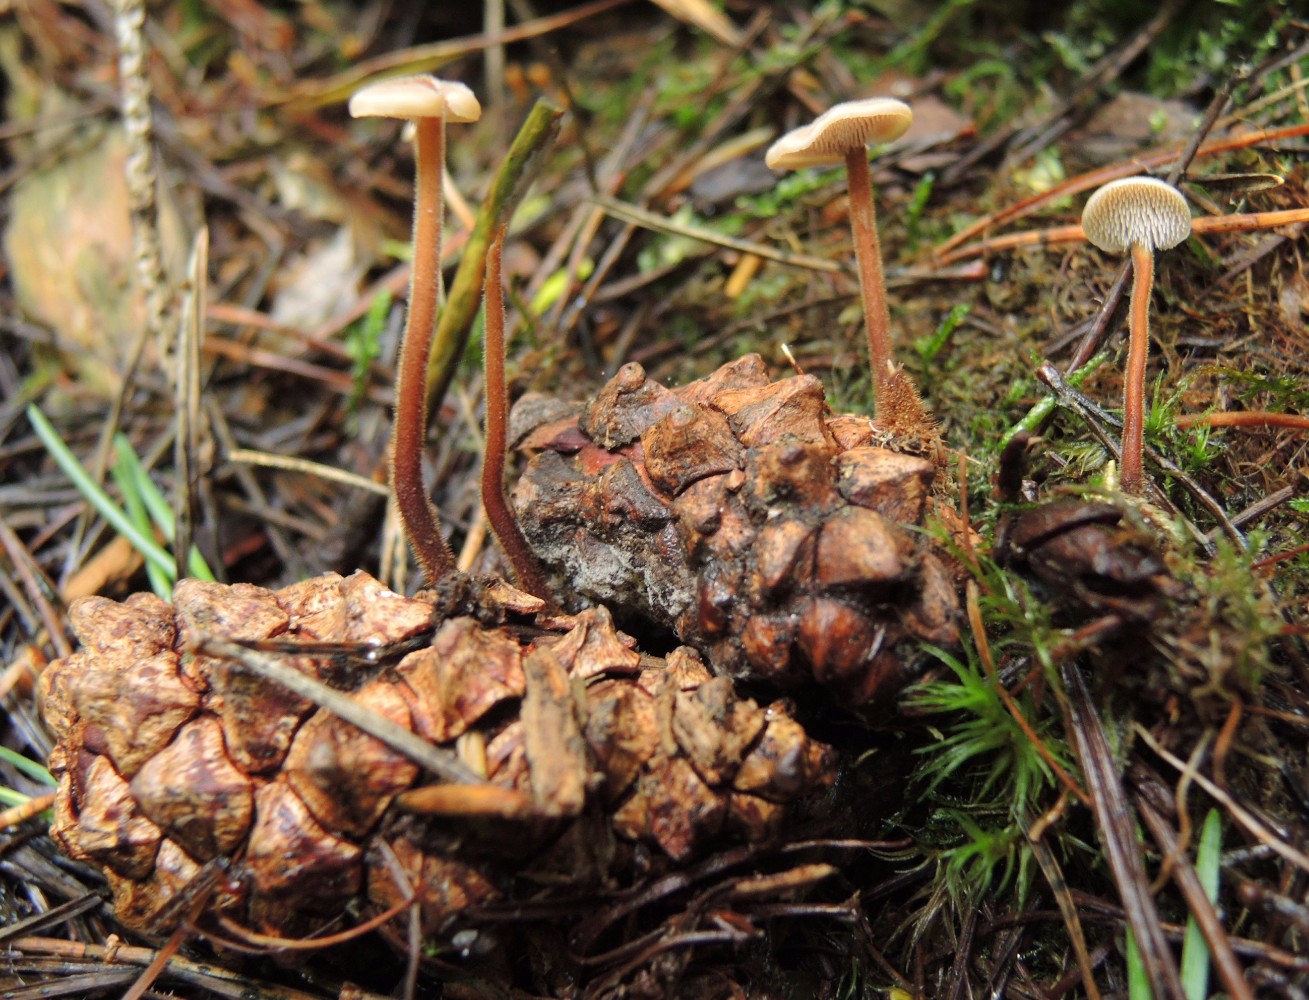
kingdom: Fungi
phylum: Basidiomycota
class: Agaricomycetes
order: Russulales
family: Auriscalpiaceae
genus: Auriscalpium
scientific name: Auriscalpium vulgare
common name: koglepigsvamp
